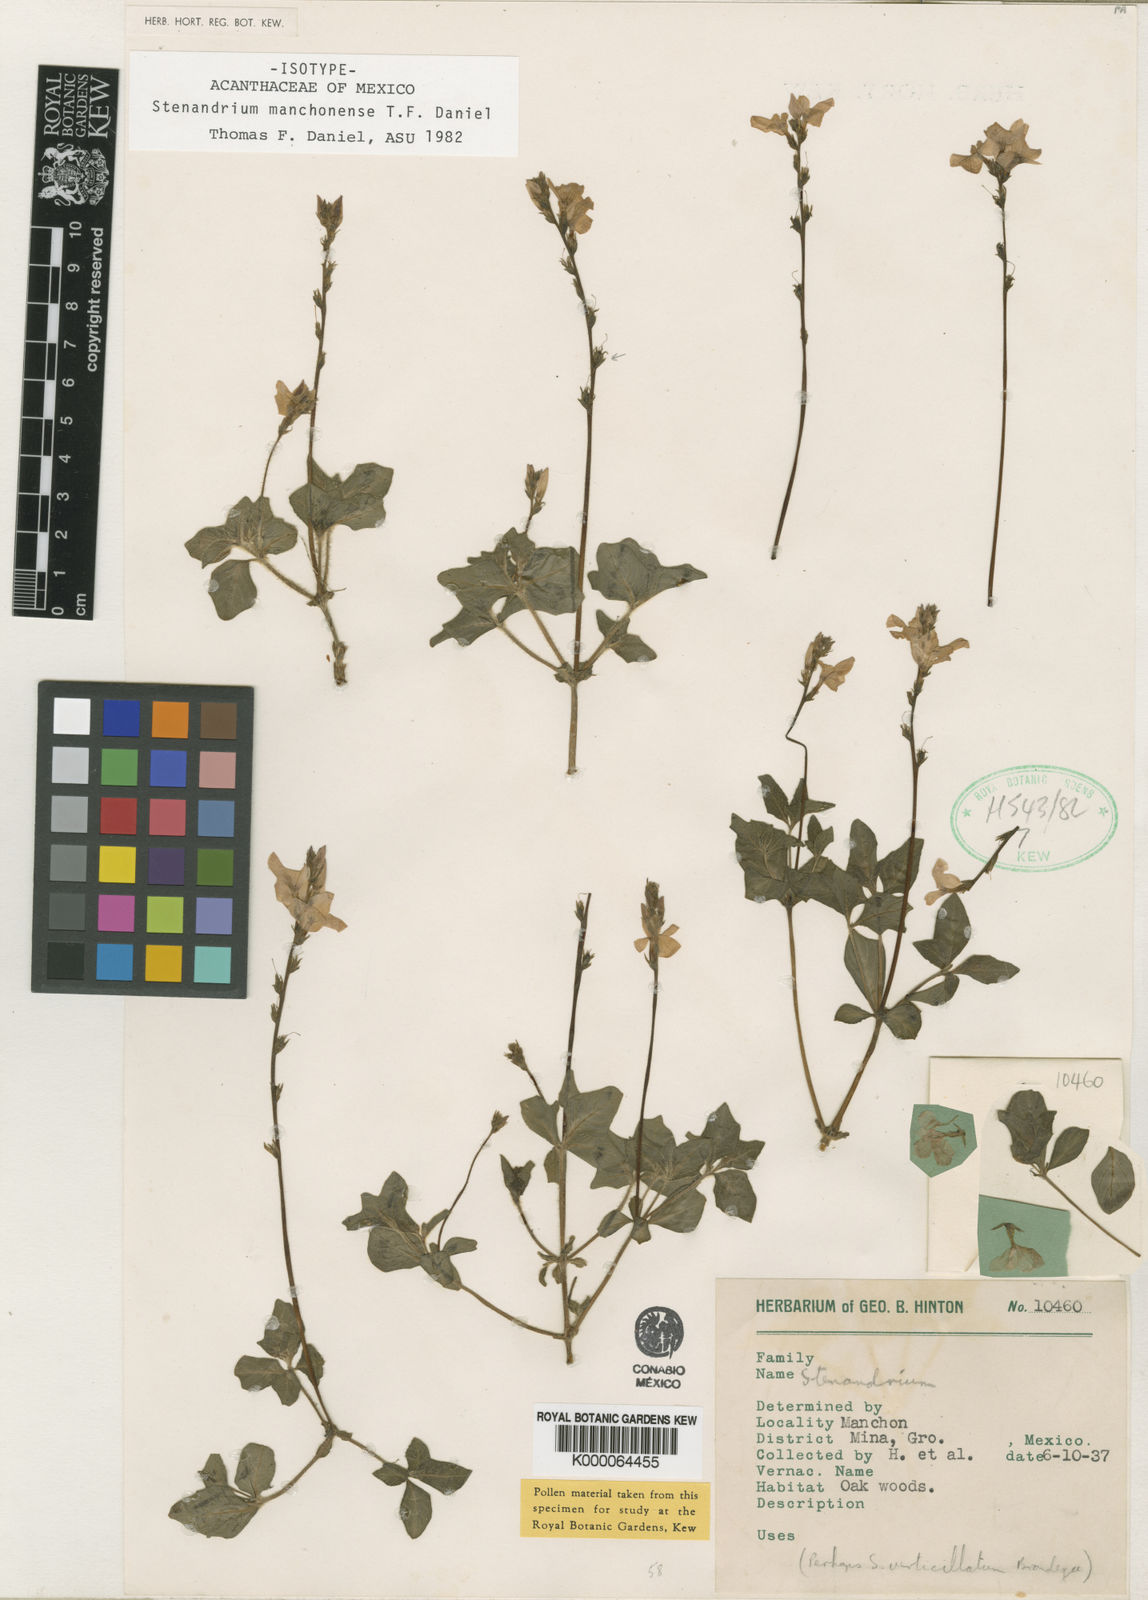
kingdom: Plantae
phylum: Tracheophyta
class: Magnoliopsida
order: Lamiales
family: Acanthaceae
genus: Stenandrium
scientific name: Stenandrium manchonense
